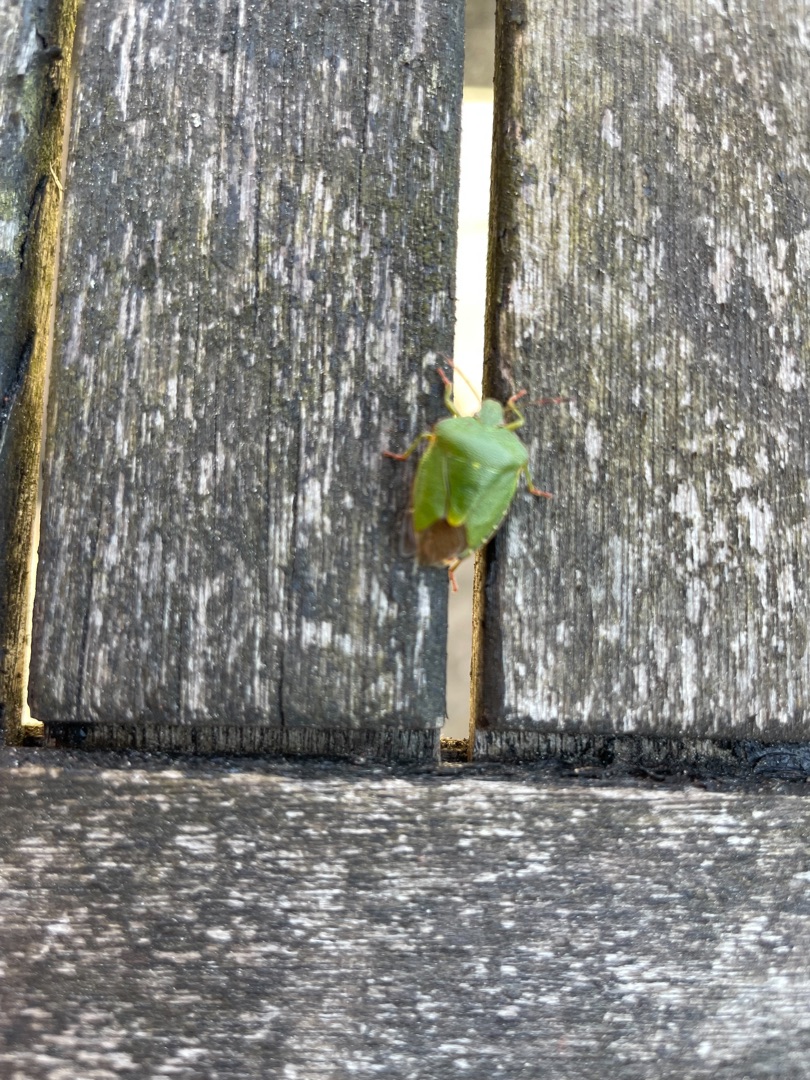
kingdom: Animalia
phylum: Arthropoda
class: Insecta
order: Hemiptera
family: Pentatomidae
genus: Palomena
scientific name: Palomena prasina
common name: Grøn bredtæge
